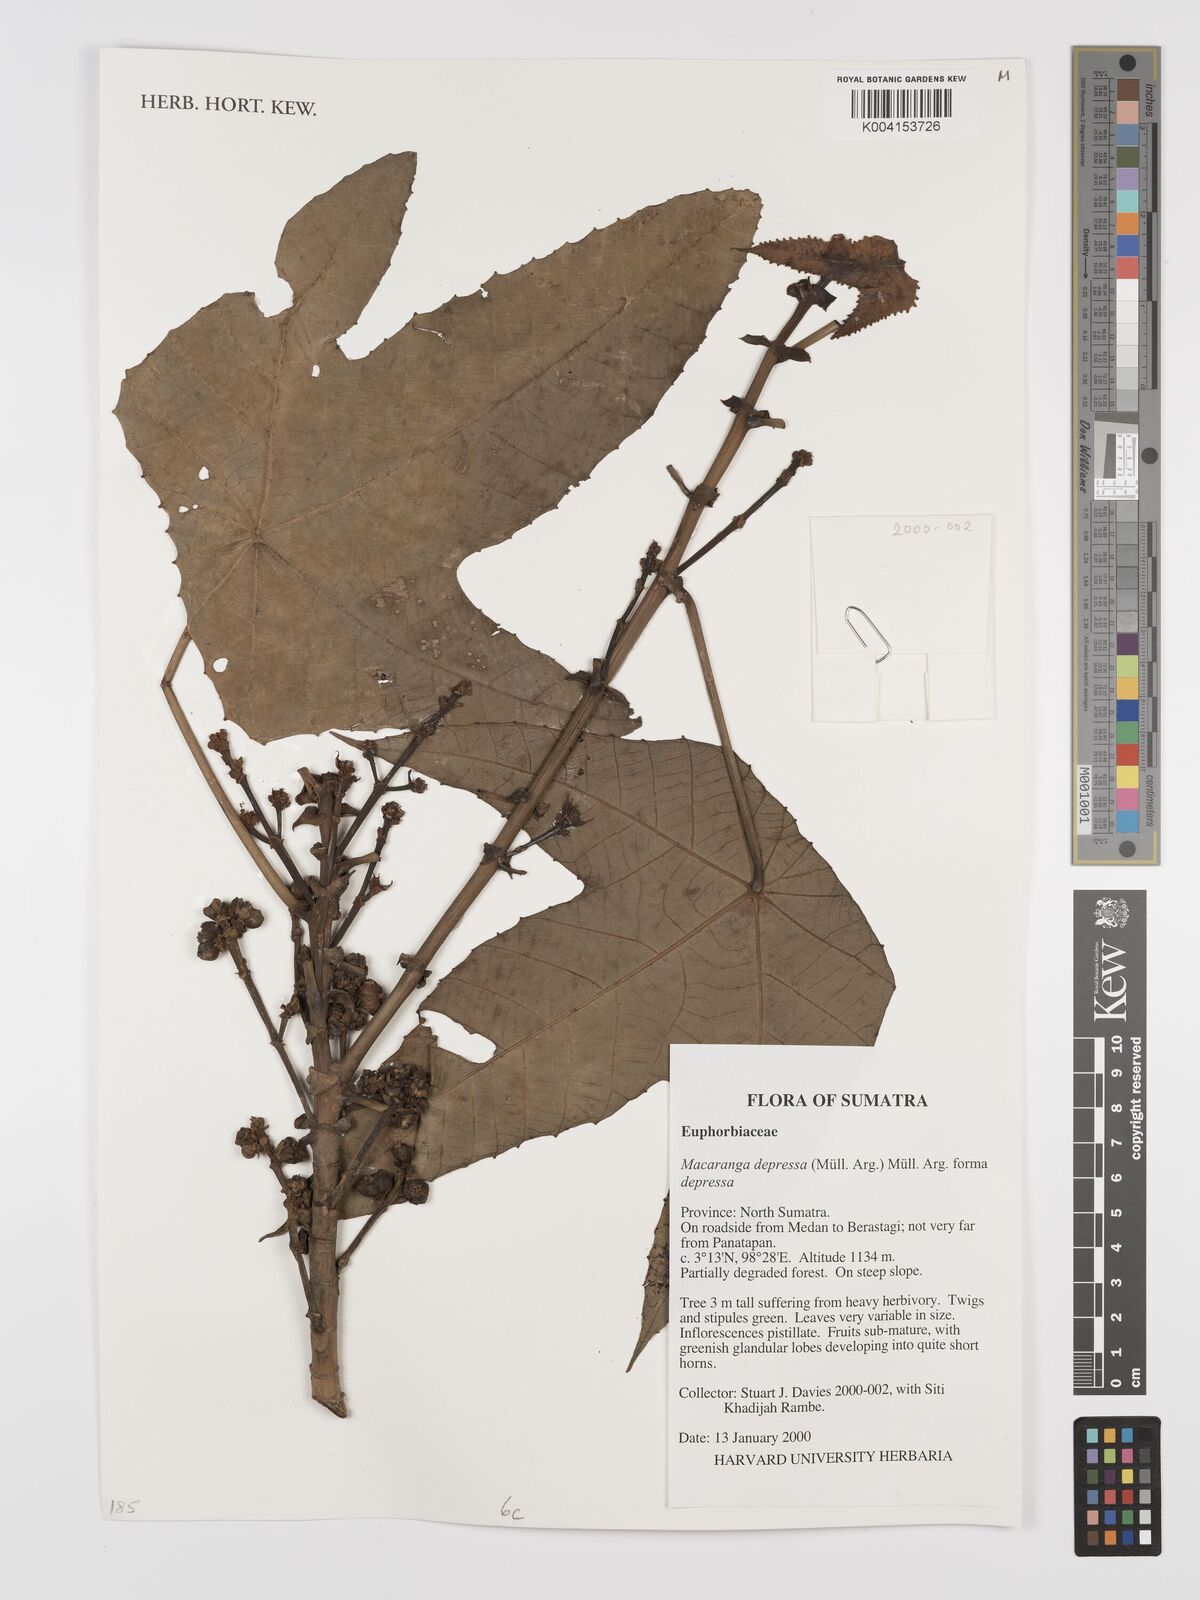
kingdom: Plantae
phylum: Tracheophyta
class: Magnoliopsida
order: Malpighiales
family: Euphorbiaceae
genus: Macaranga
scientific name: Macaranga depressa
